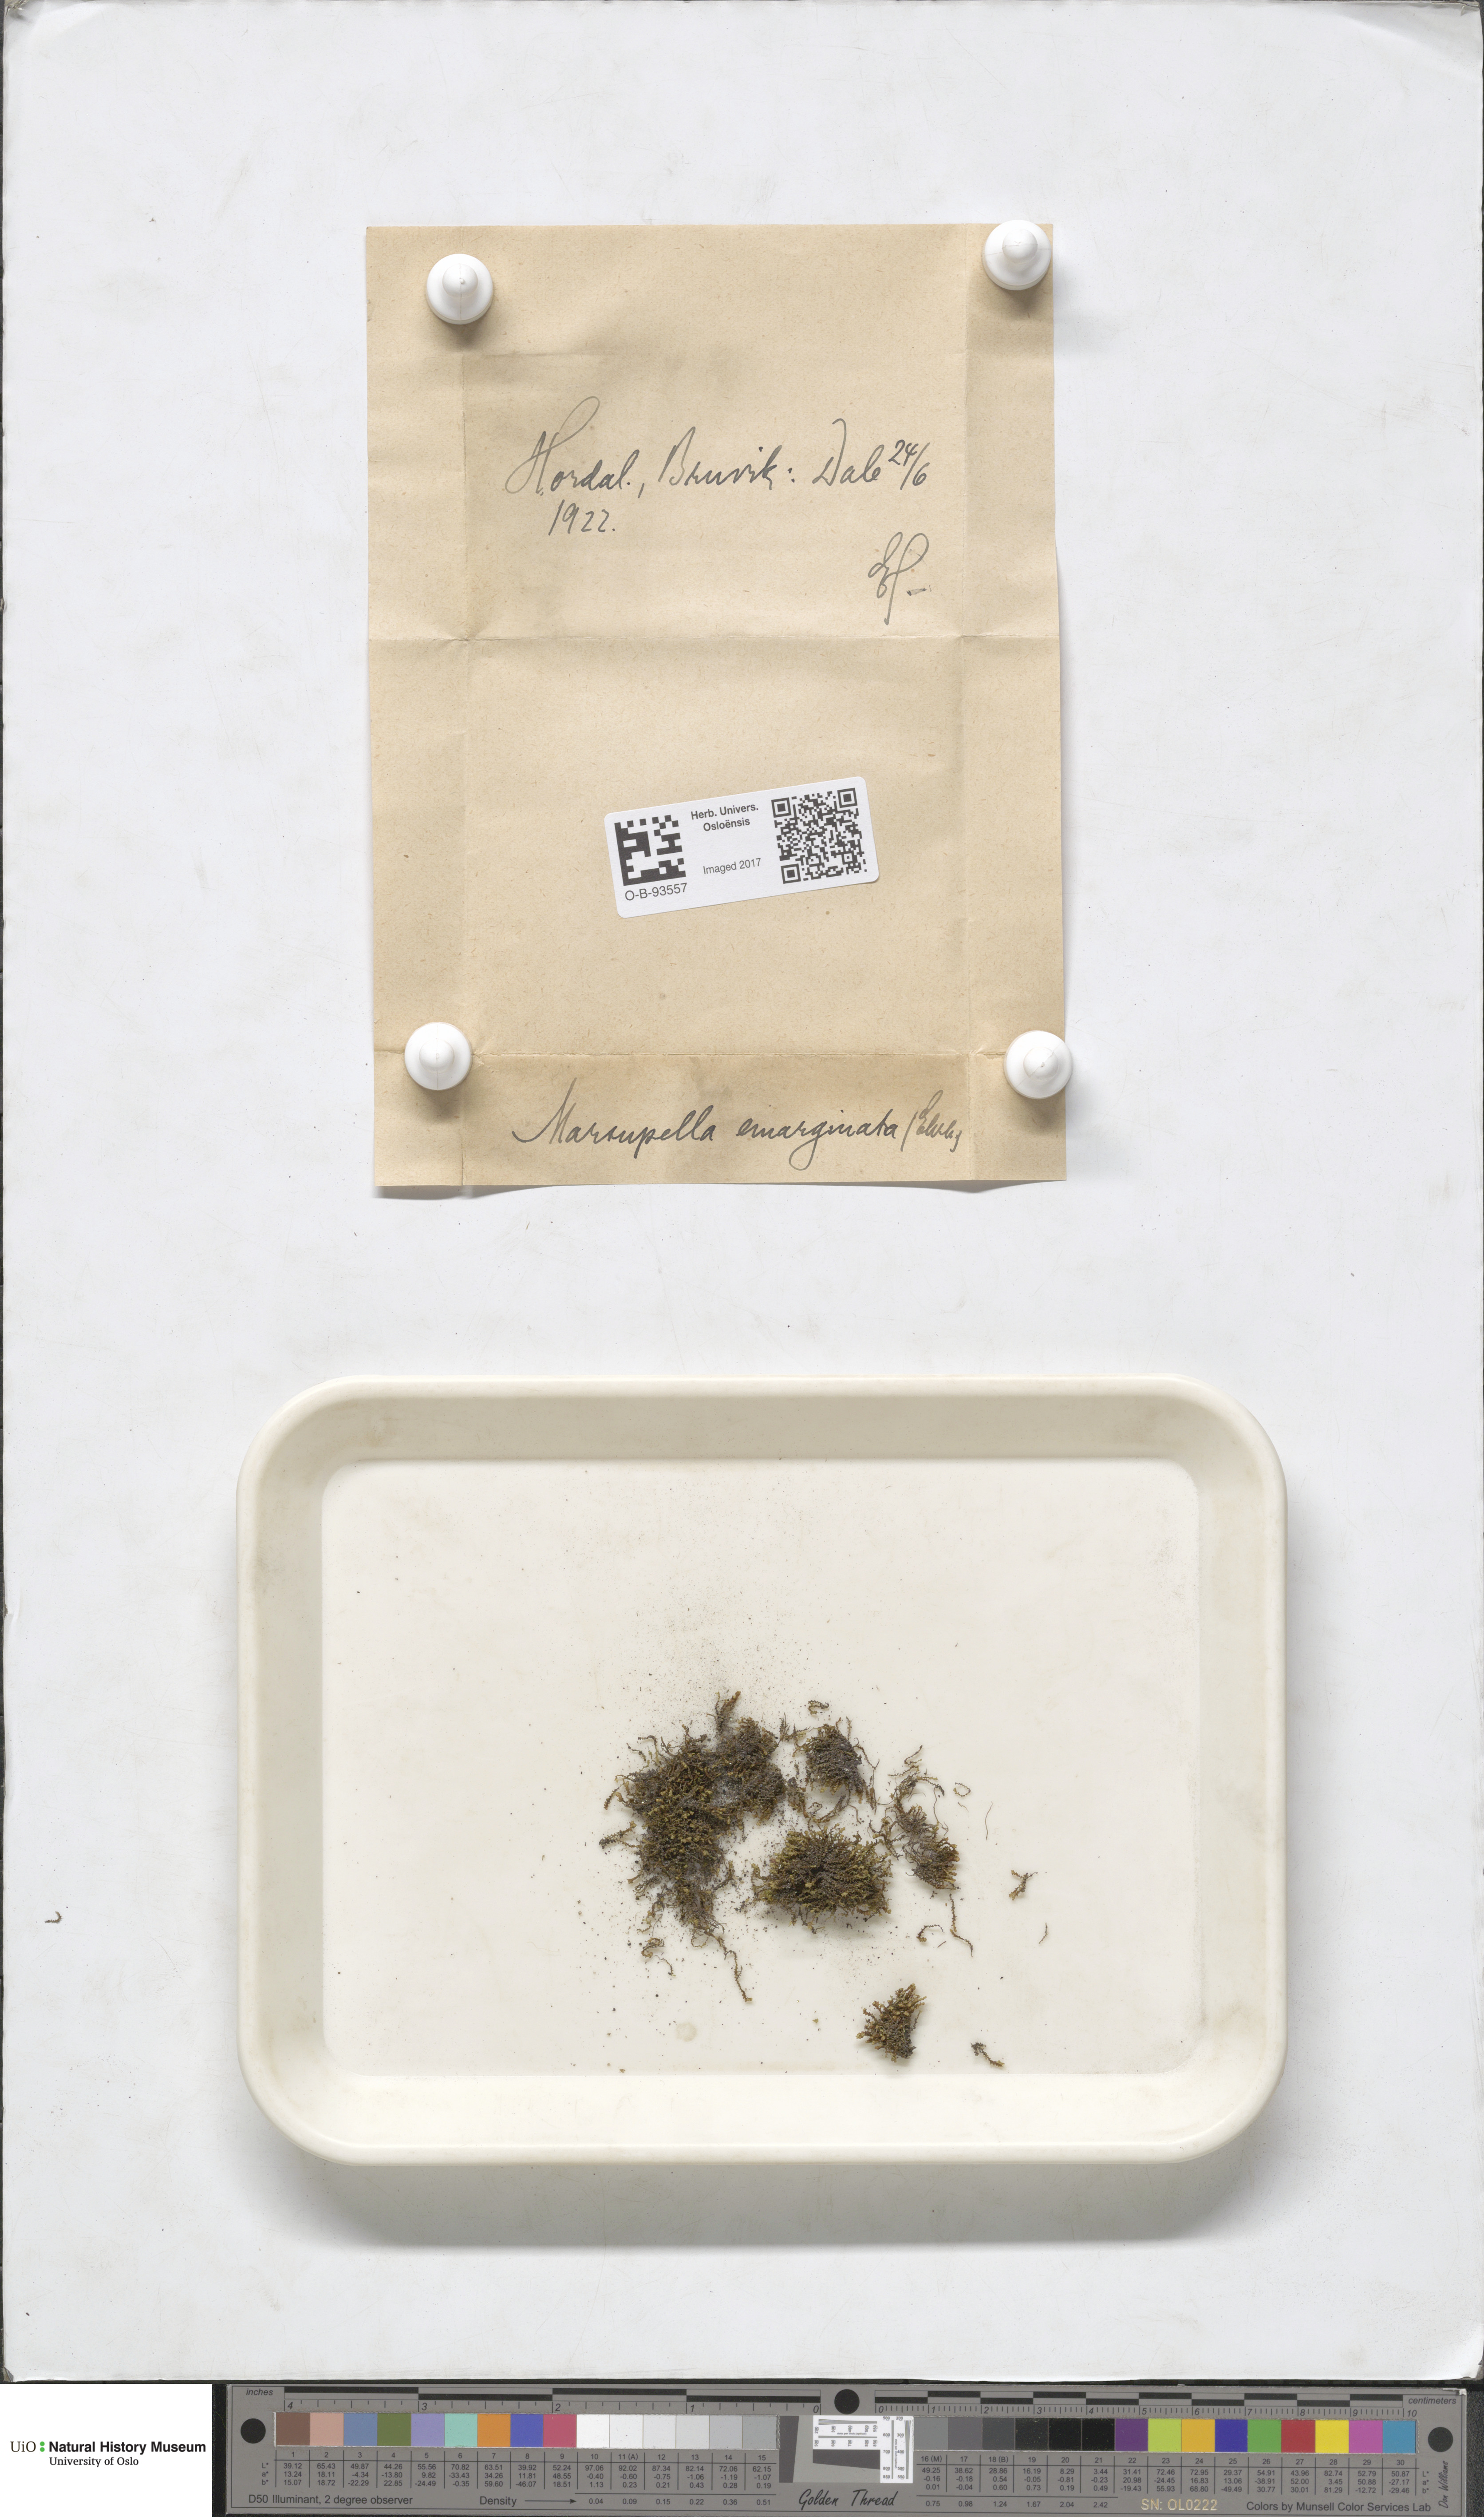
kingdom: Plantae
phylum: Marchantiophyta
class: Jungermanniopsida
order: Jungermanniales
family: Gymnomitriaceae
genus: Marsupella
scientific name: Marsupella emarginata
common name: Notched rustwort
